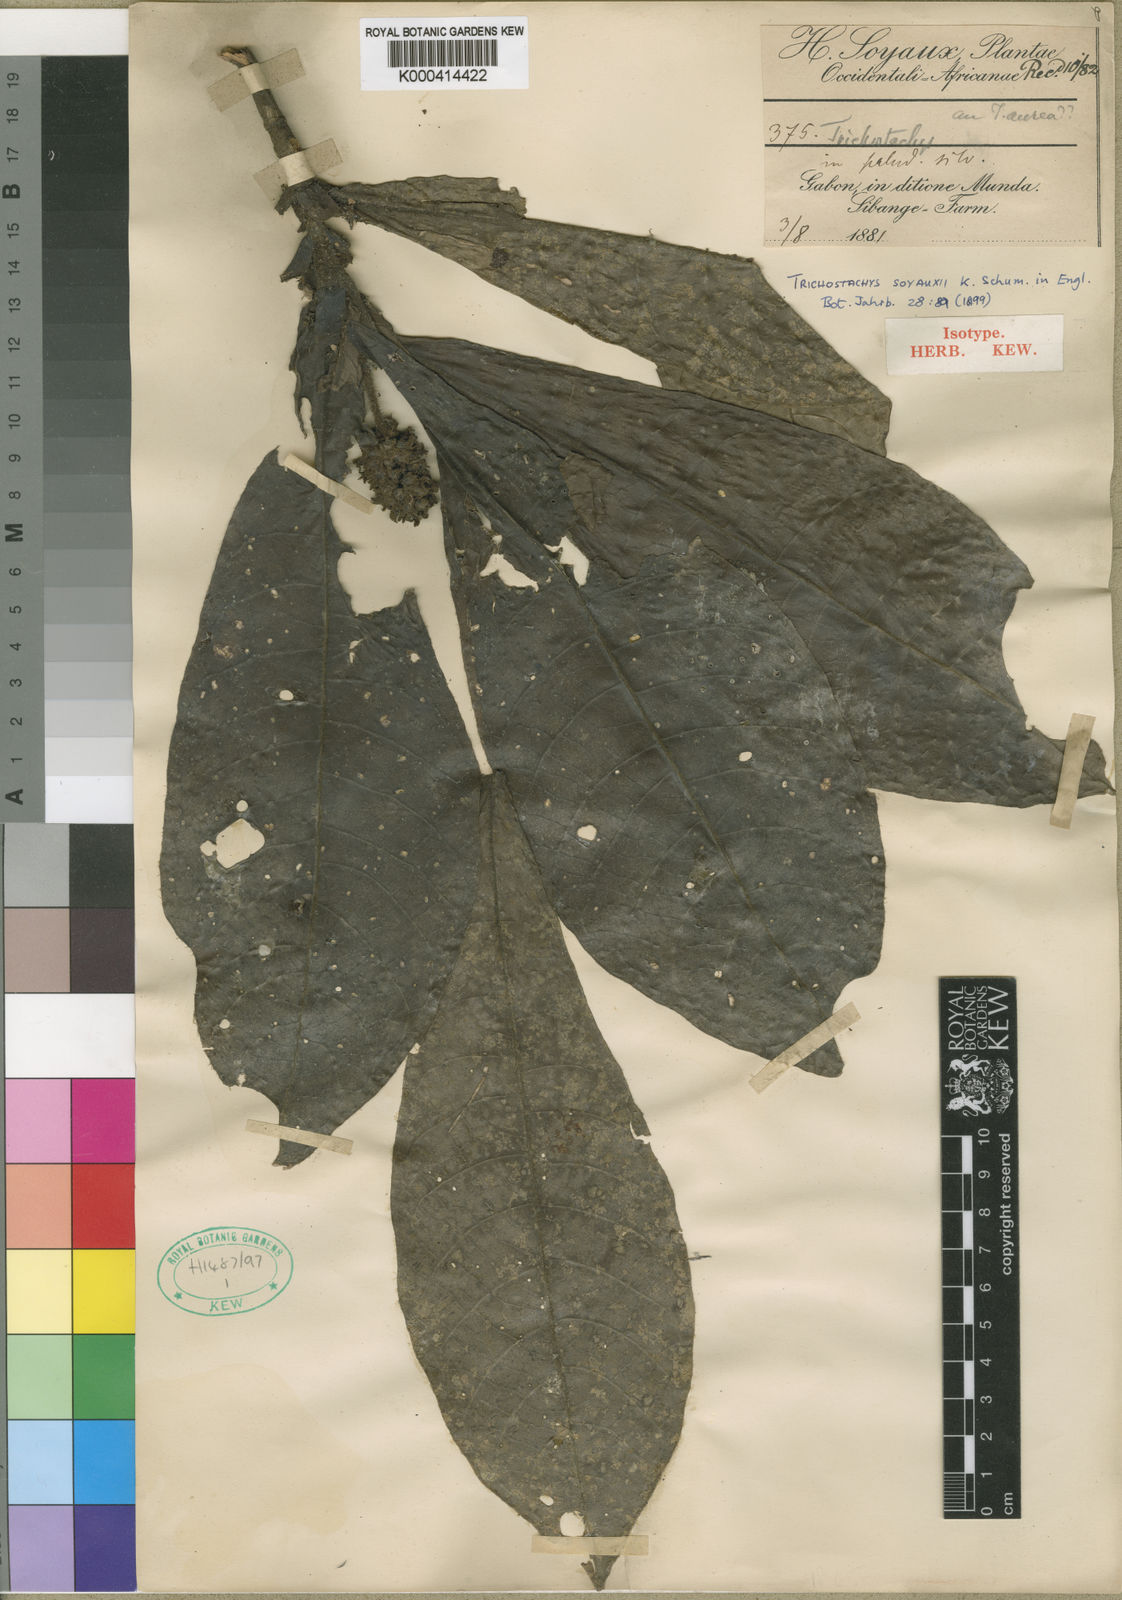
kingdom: Plantae
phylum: Tracheophyta
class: Magnoliopsida
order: Gentianales
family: Rubiaceae
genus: Trichostachys
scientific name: Trichostachys soyauxii
